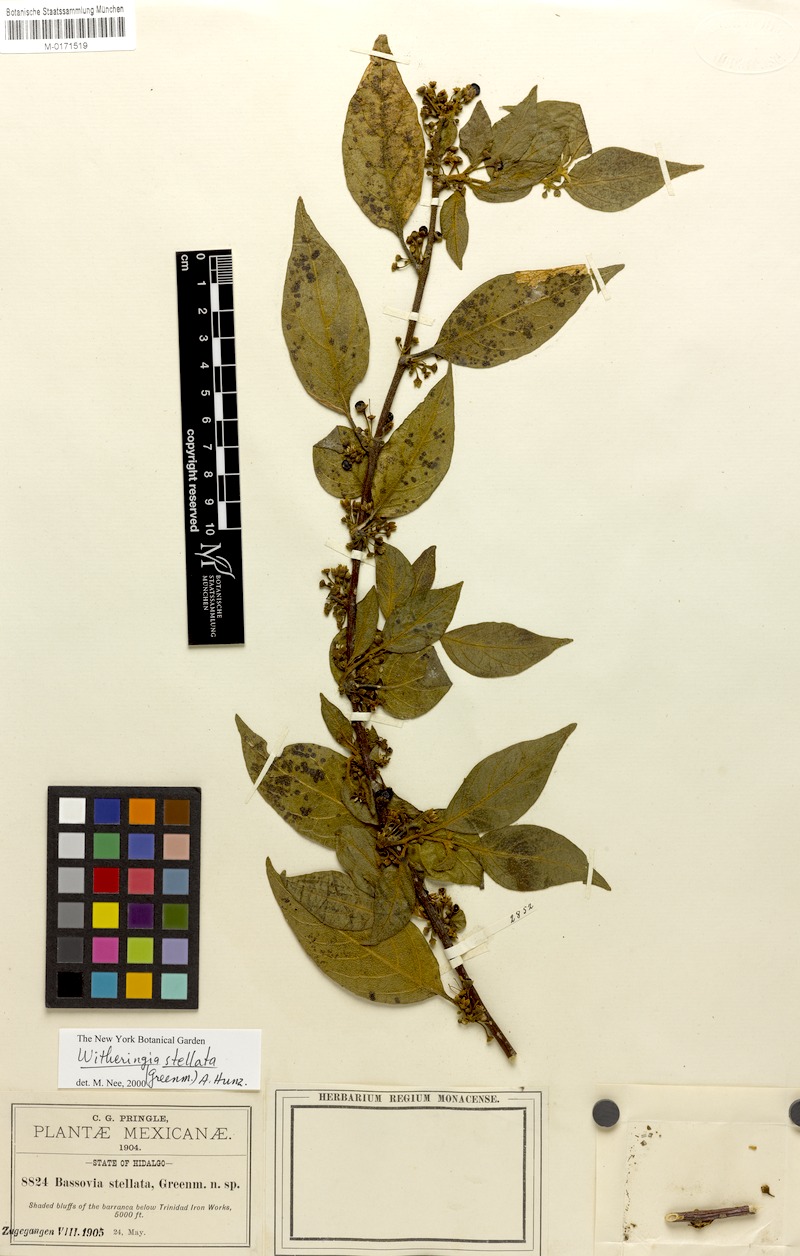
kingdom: Plantae
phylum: Tracheophyta
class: Magnoliopsida
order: Solanales
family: Solanaceae
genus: Witheringia
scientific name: Witheringia stellata
